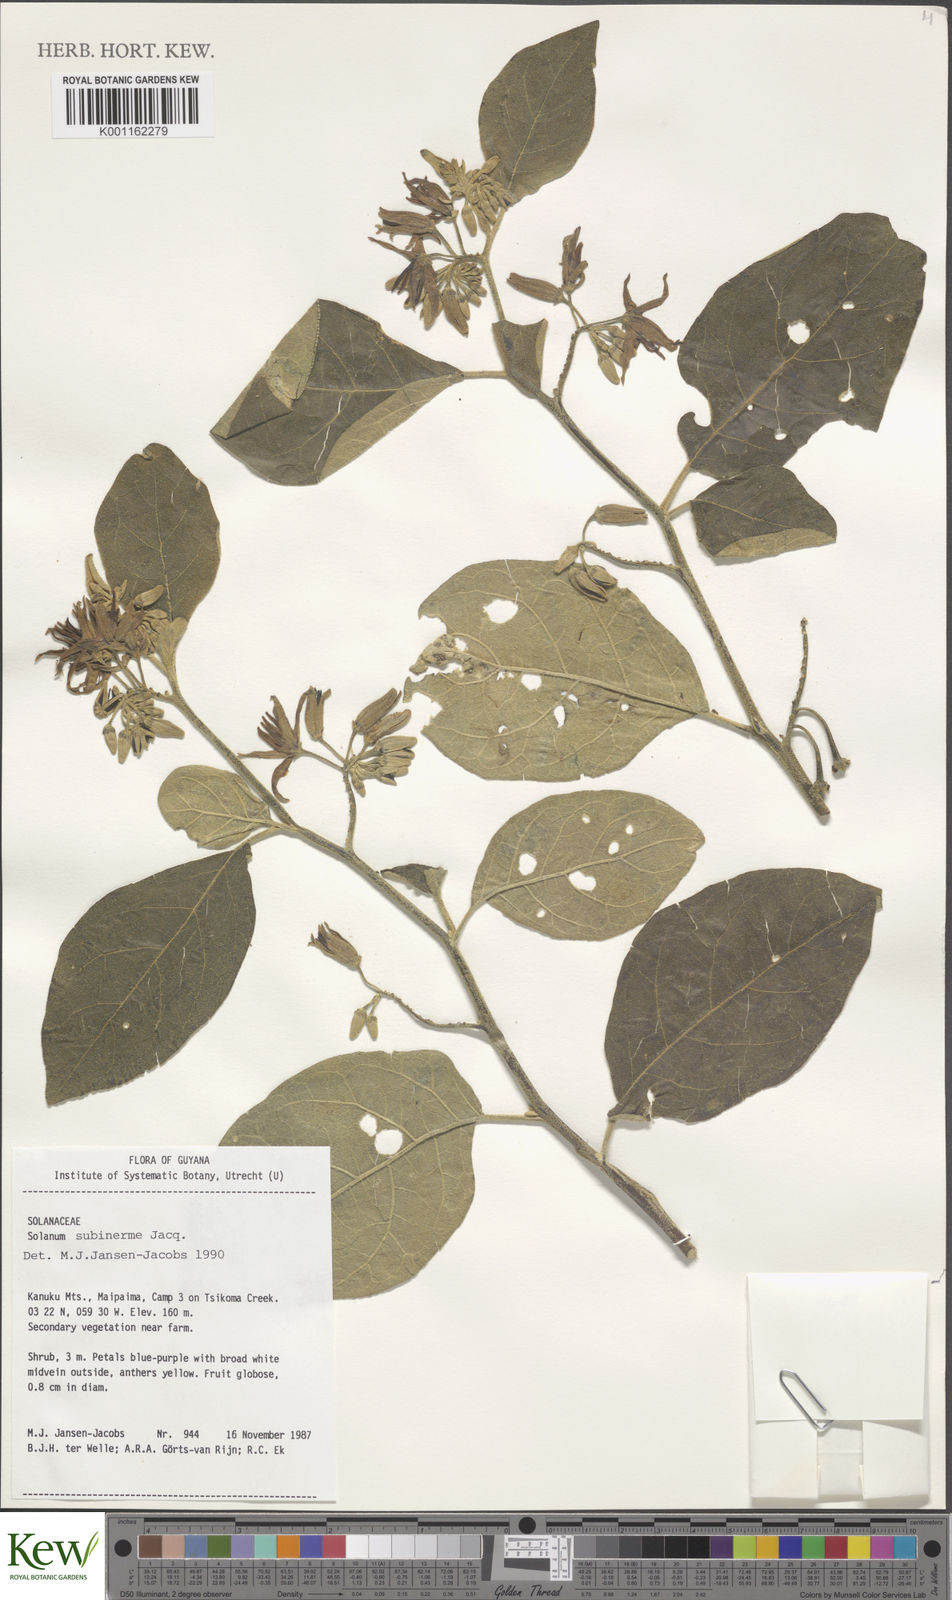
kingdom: Plantae
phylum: Tracheophyta
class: Magnoliopsida
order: Solanales
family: Solanaceae
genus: Solanum
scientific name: Solanum subinerme
